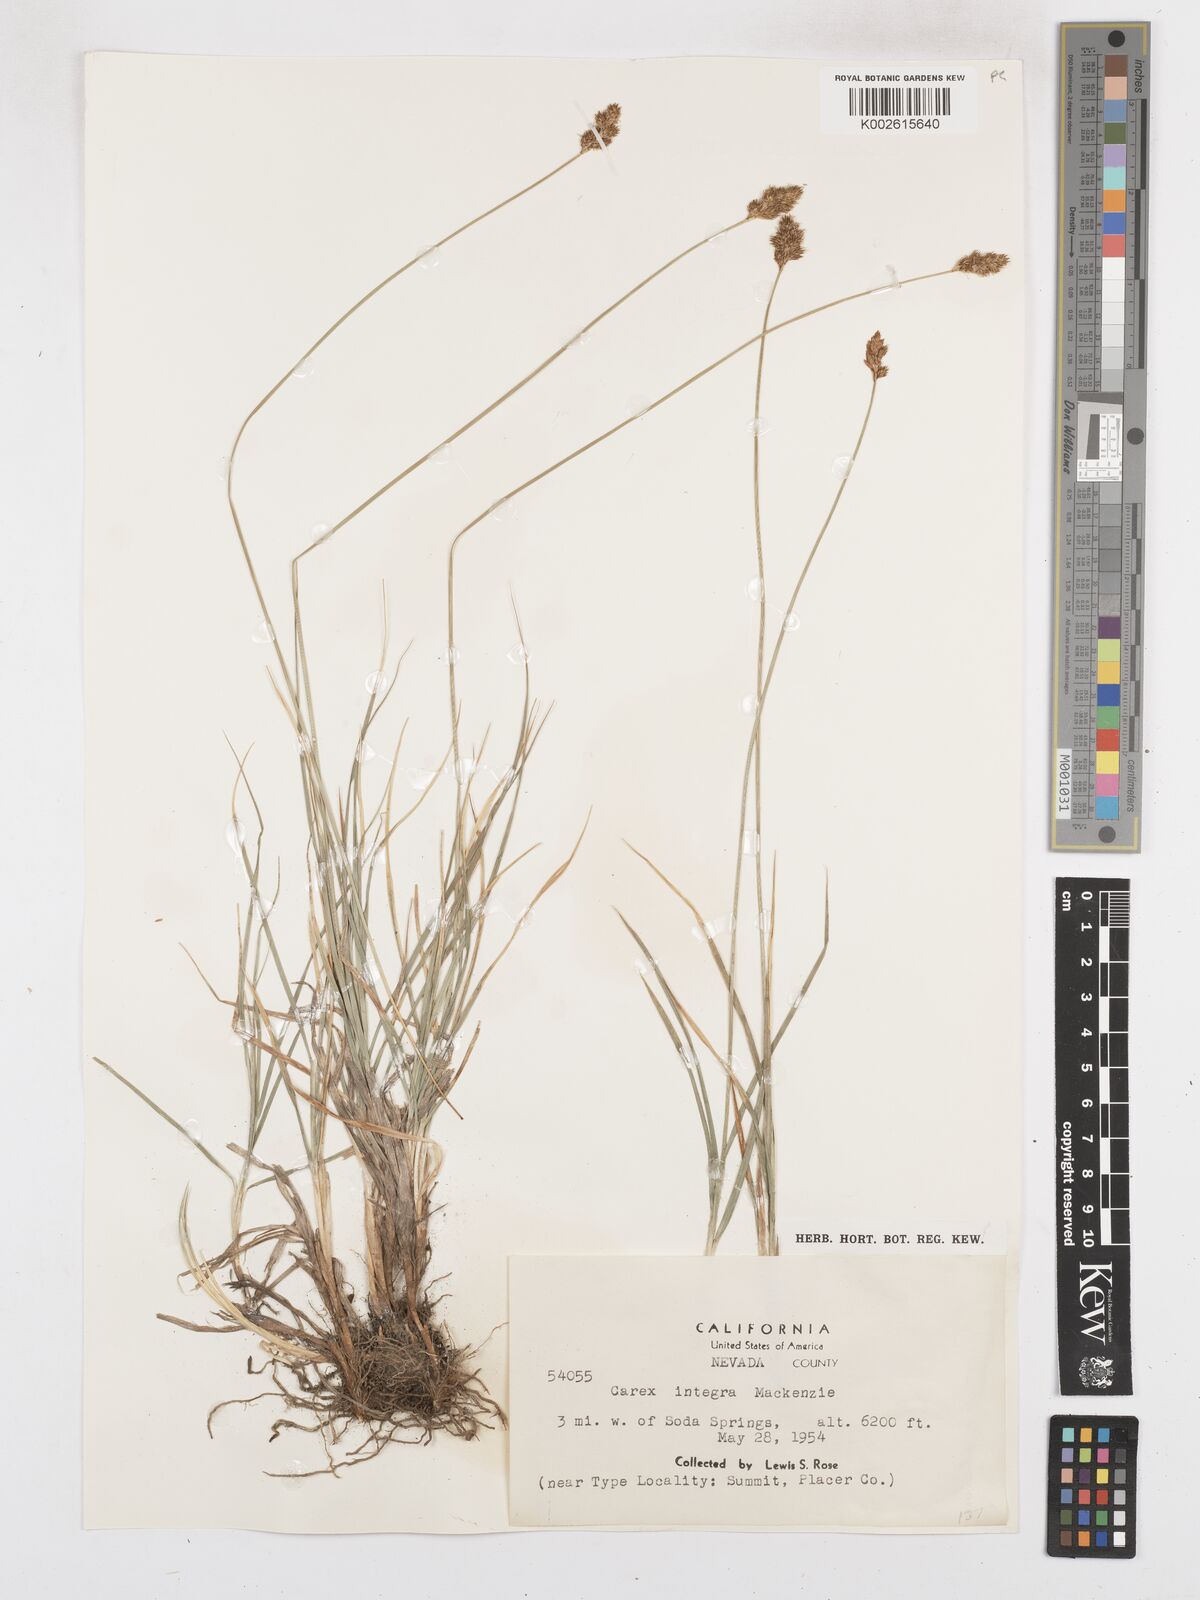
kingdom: Plantae
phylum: Tracheophyta
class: Liliopsida
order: Poales
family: Cyperaceae
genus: Carex
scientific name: Carex integra
